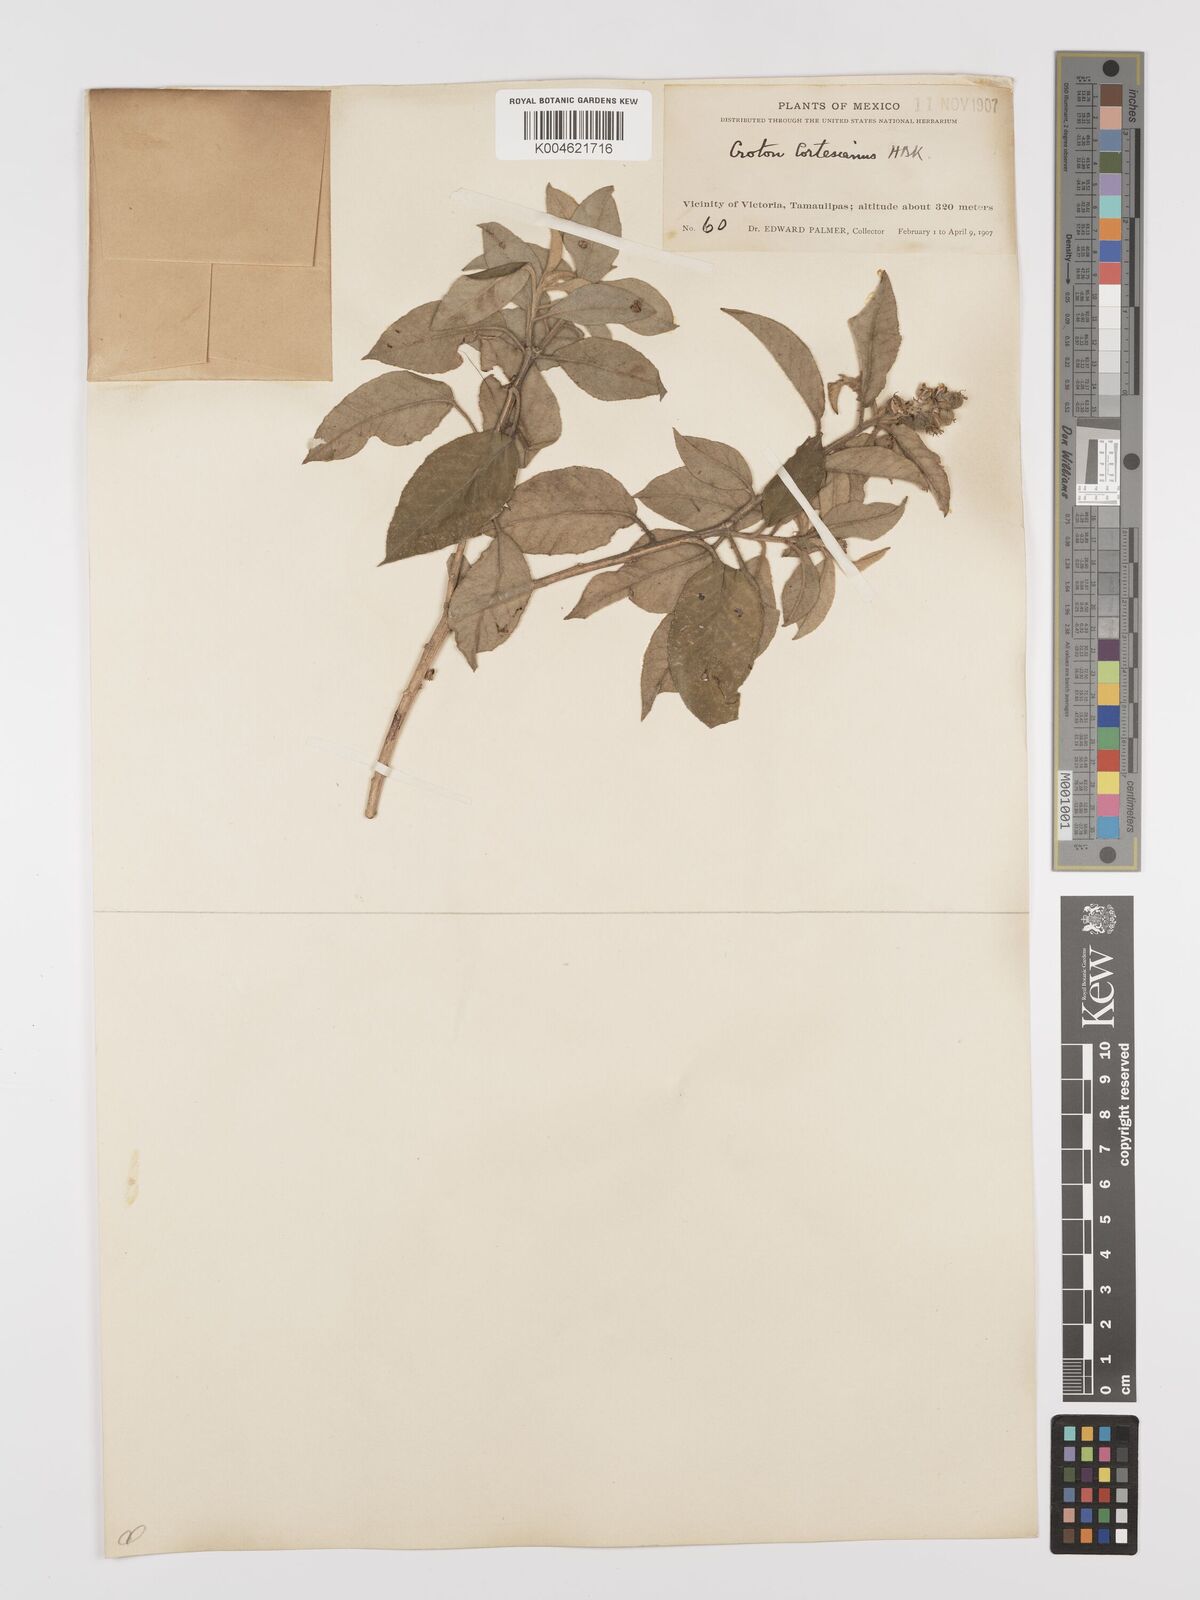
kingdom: Plantae
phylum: Tracheophyta
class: Magnoliopsida
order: Malpighiales
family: Euphorbiaceae
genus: Croton
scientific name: Croton cortesianus
